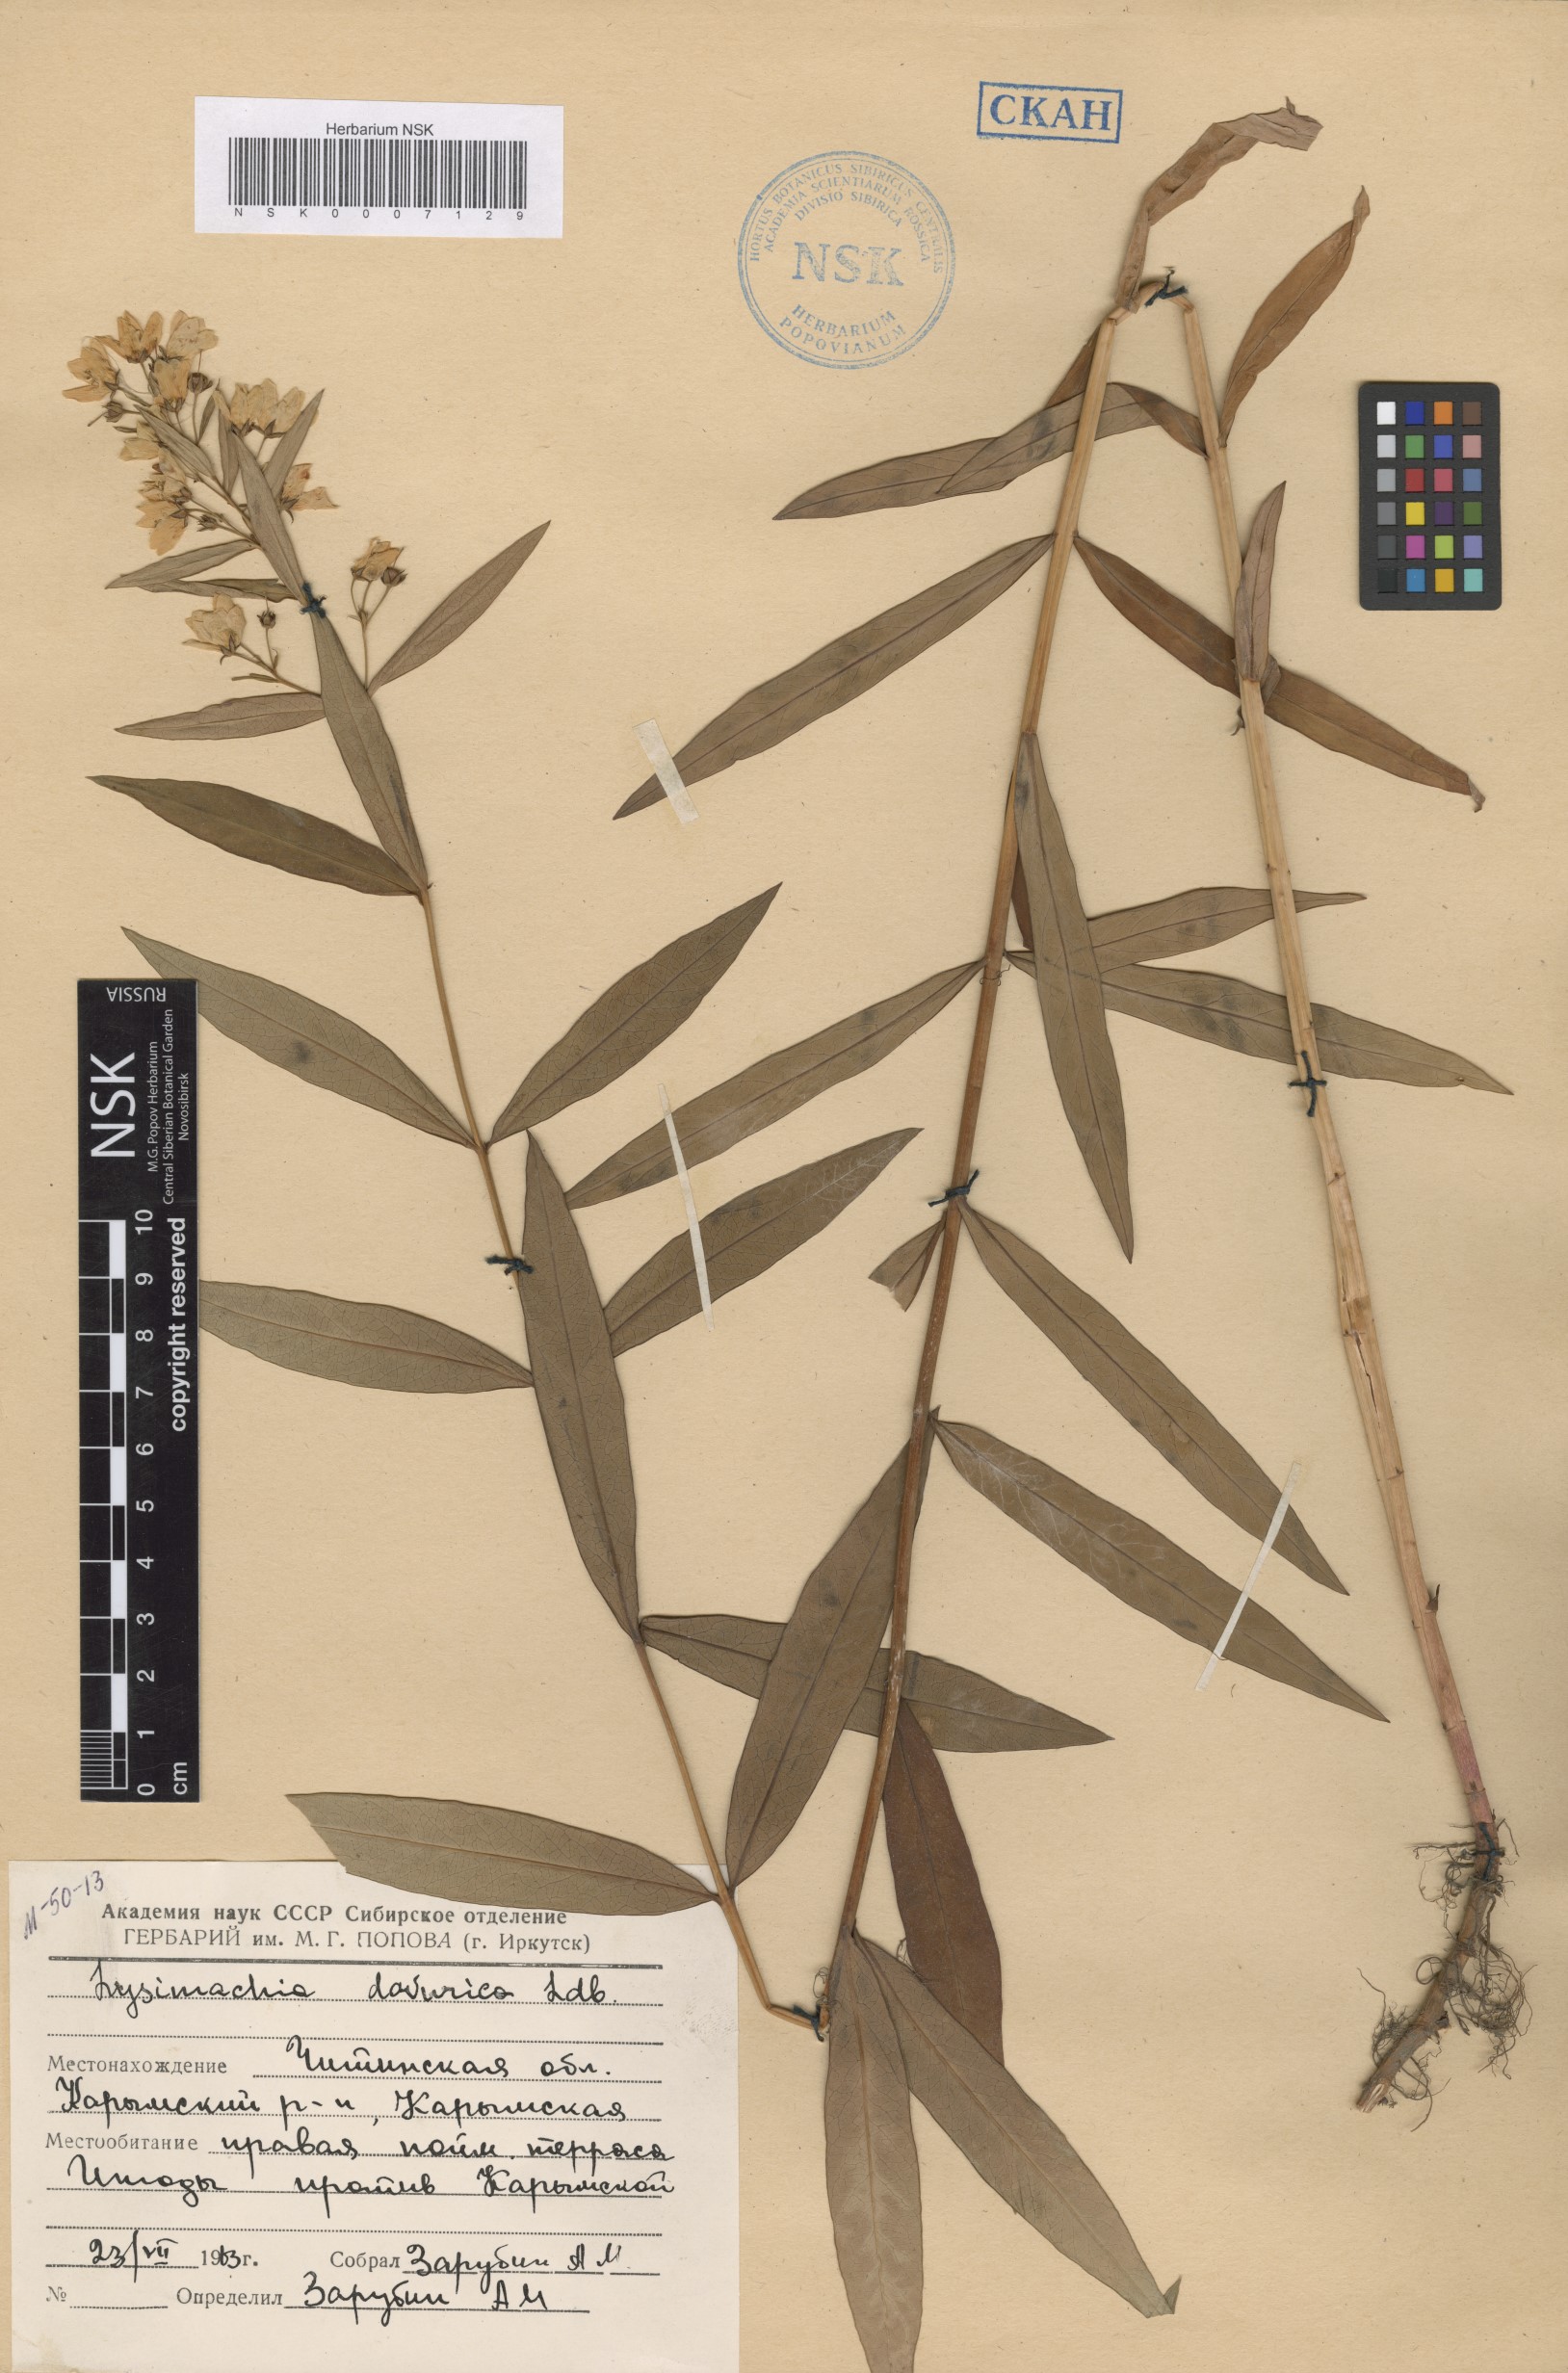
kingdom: Plantae
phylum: Tracheophyta
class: Magnoliopsida
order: Ericales
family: Primulaceae
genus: Lysimachia
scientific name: Lysimachia davurica
